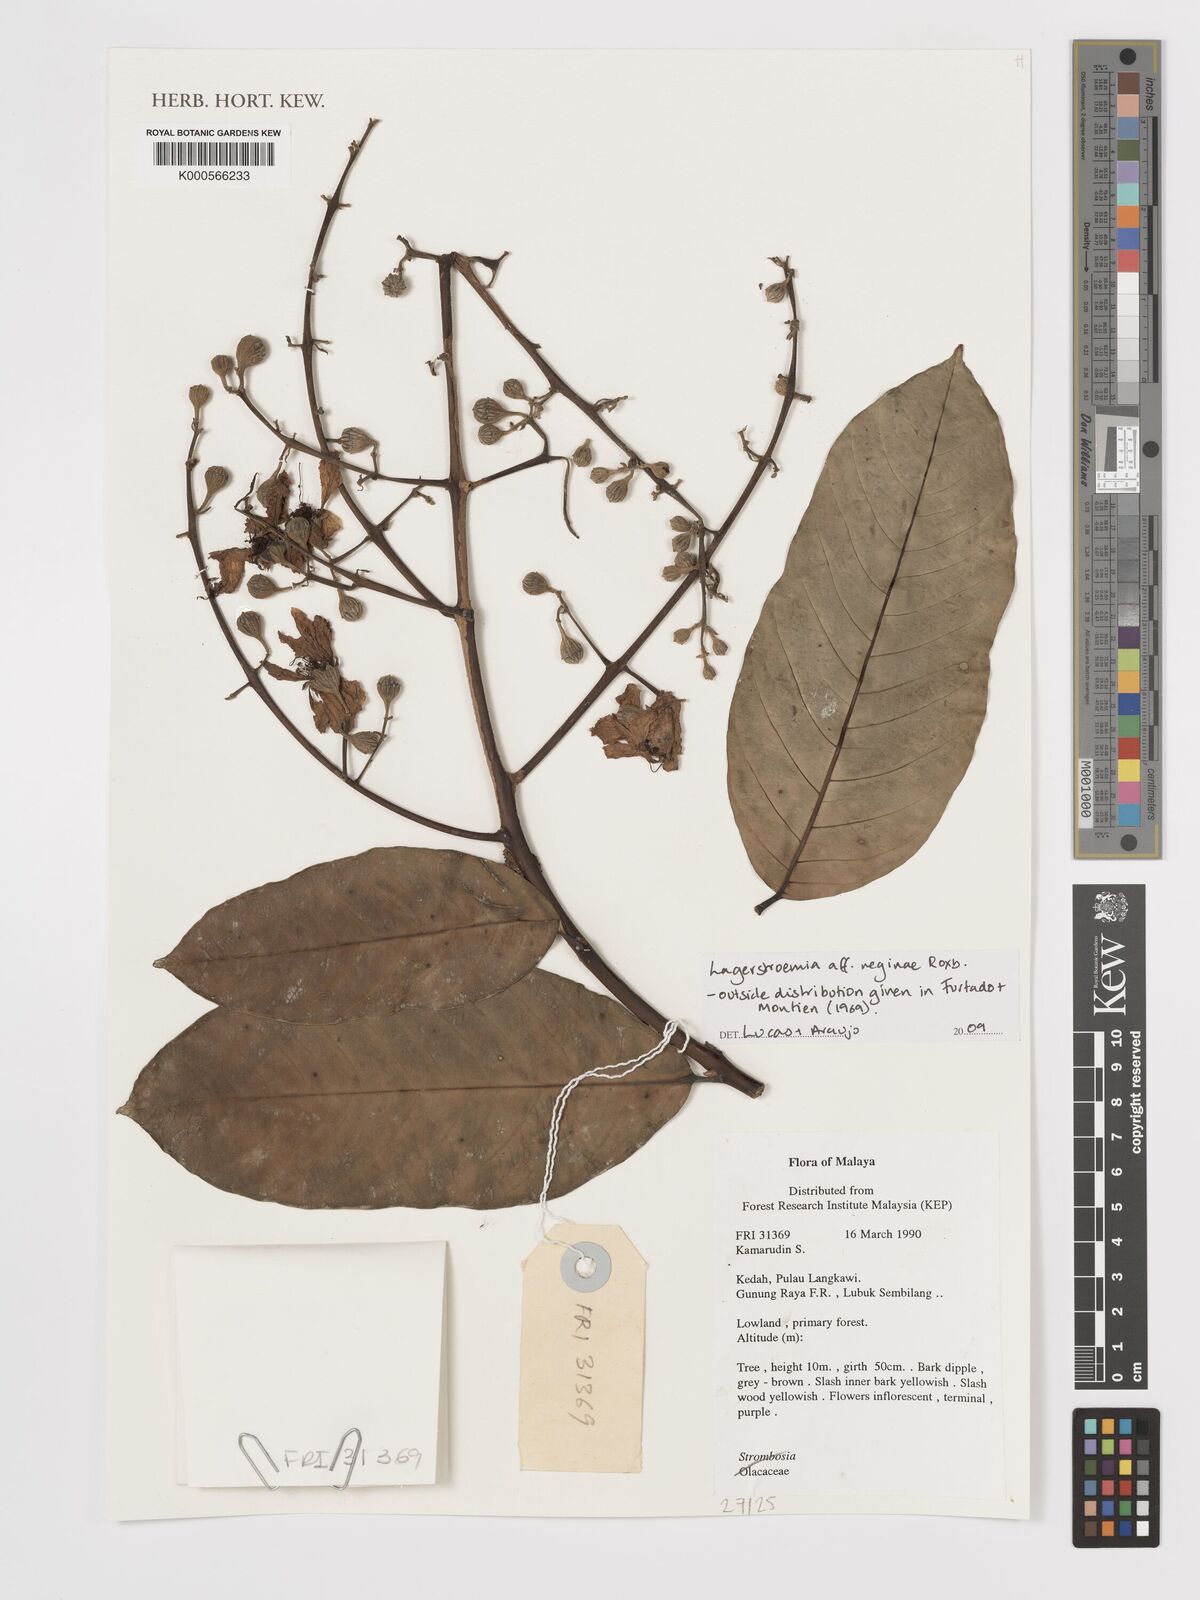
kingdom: Plantae
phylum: Tracheophyta
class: Magnoliopsida
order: Myrtales
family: Lythraceae
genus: Lagerstroemia
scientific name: Lagerstroemia speciosa
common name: Queen's crape-myrtle
